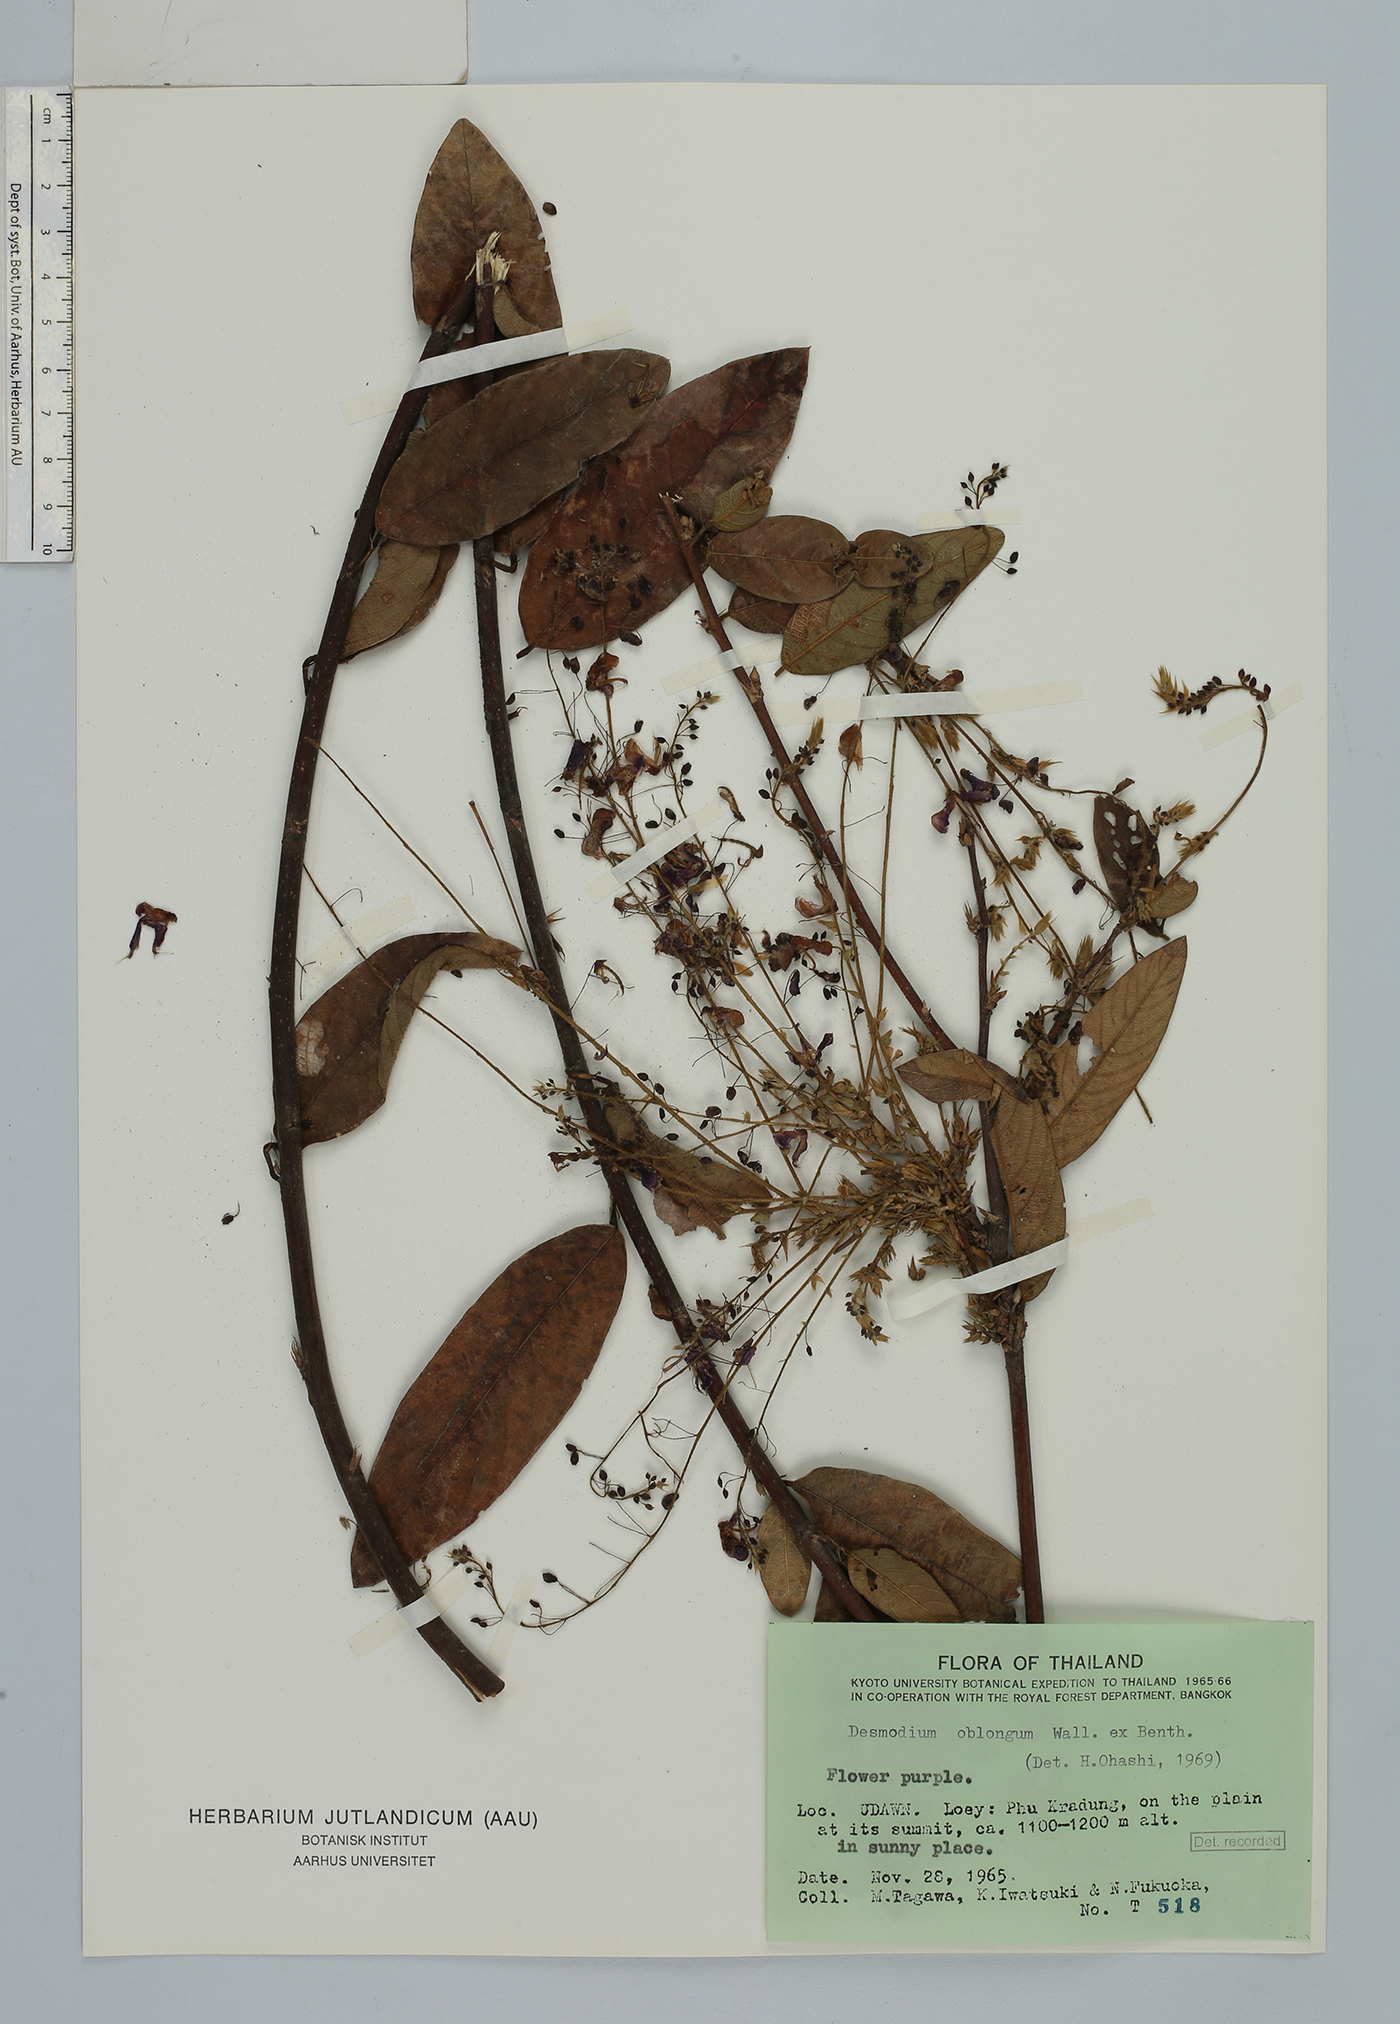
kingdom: Plantae
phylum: Tracheophyta
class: Magnoliopsida
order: Fabales
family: Fabaceae
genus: Uraria
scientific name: Uraria oblonga
